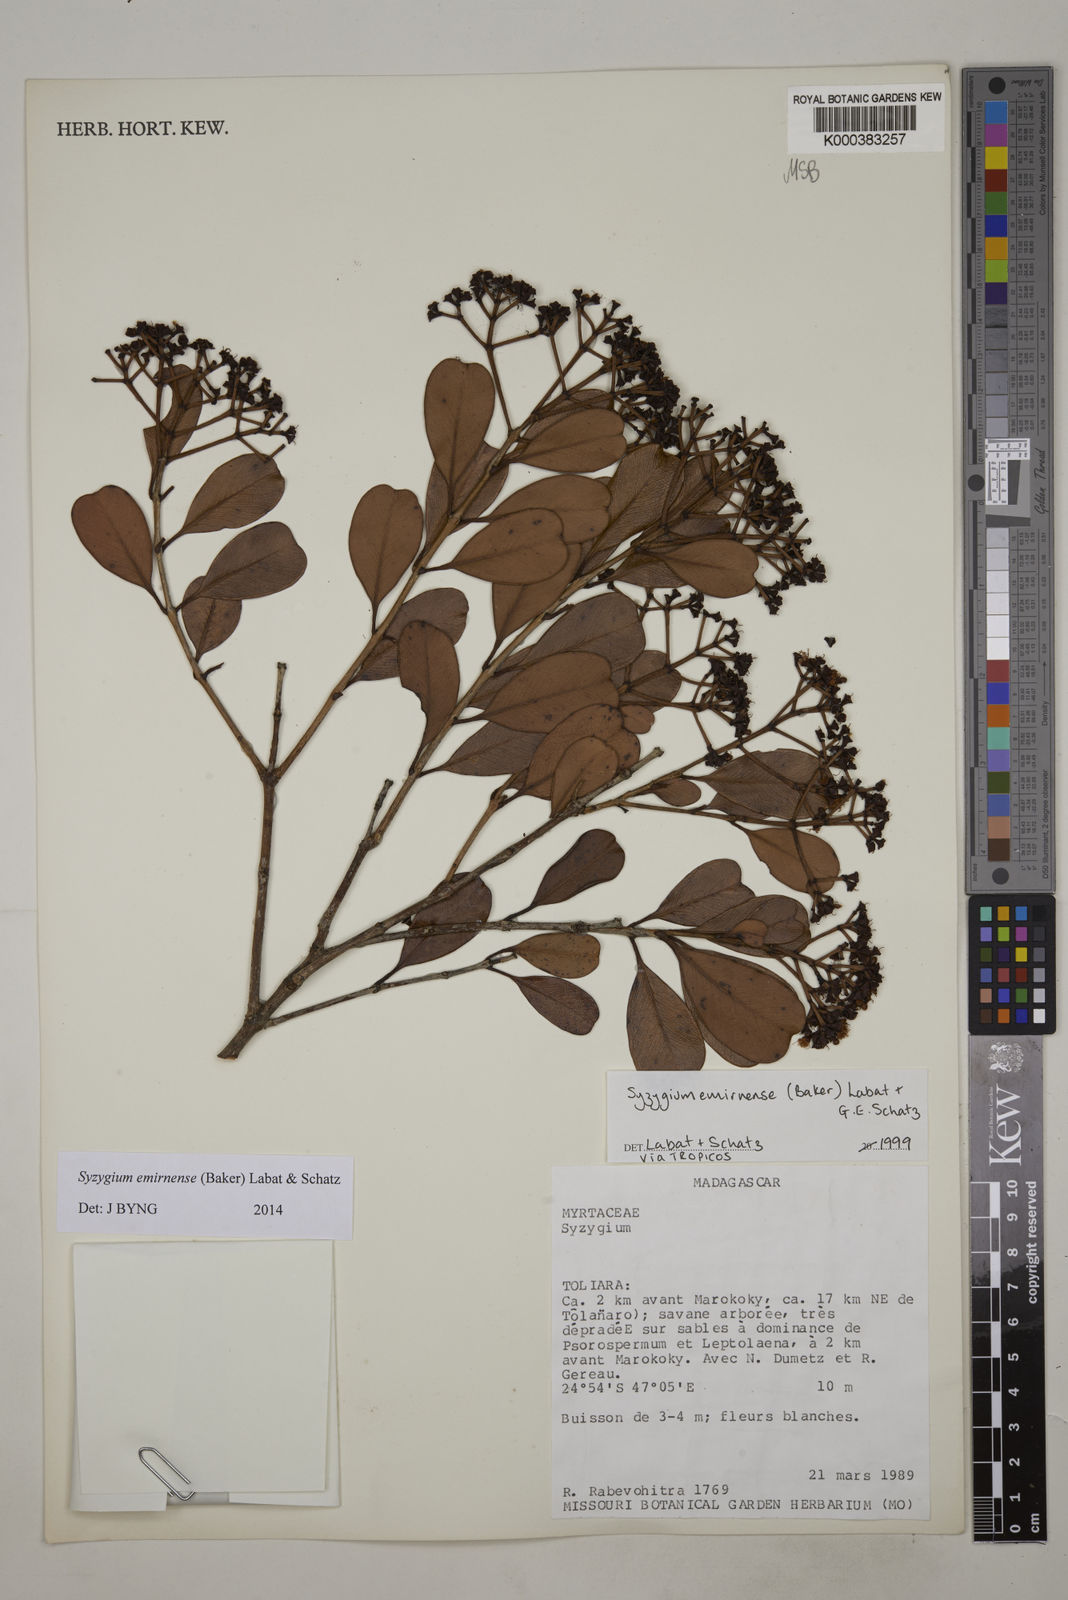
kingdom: Plantae
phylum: Tracheophyta
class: Magnoliopsida
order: Myrtales
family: Myrtaceae
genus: Syzygium
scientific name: Syzygium emirnense
